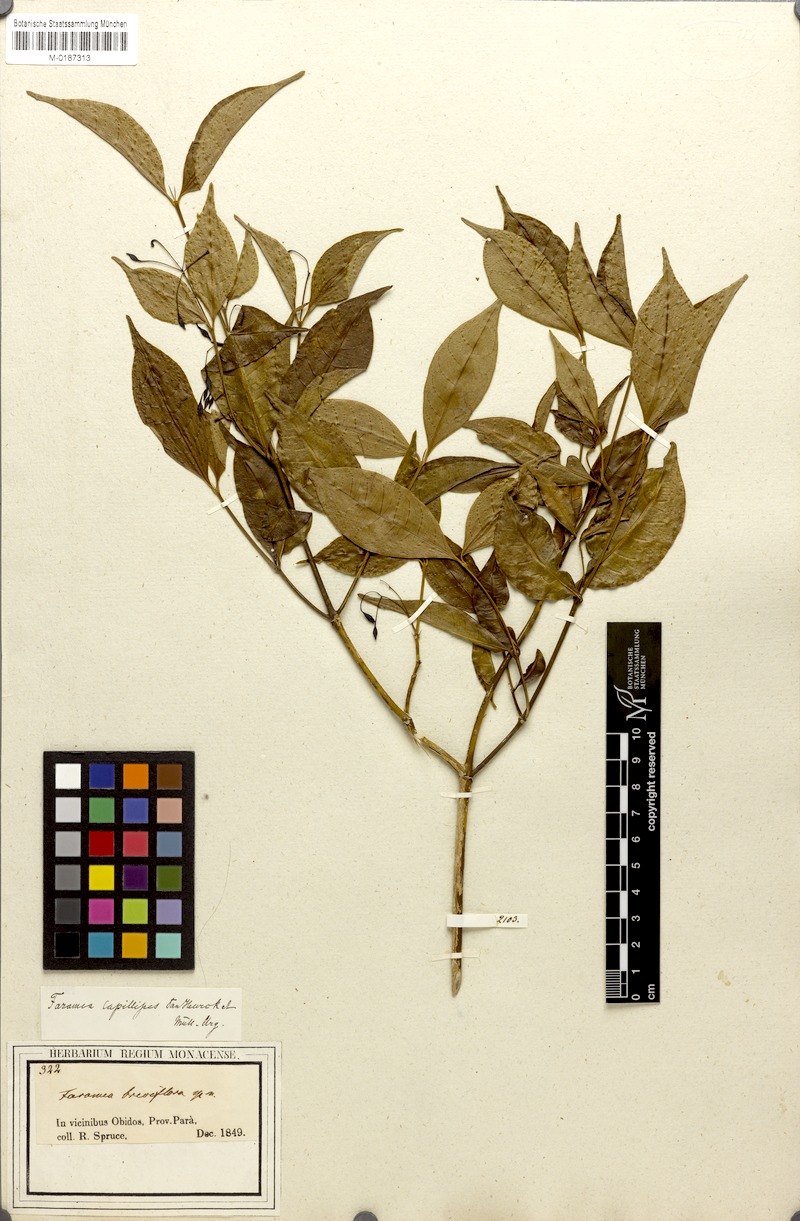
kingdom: Plantae
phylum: Tracheophyta
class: Magnoliopsida
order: Gentianales
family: Rubiaceae
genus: Faramea
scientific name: Faramea capillipes
